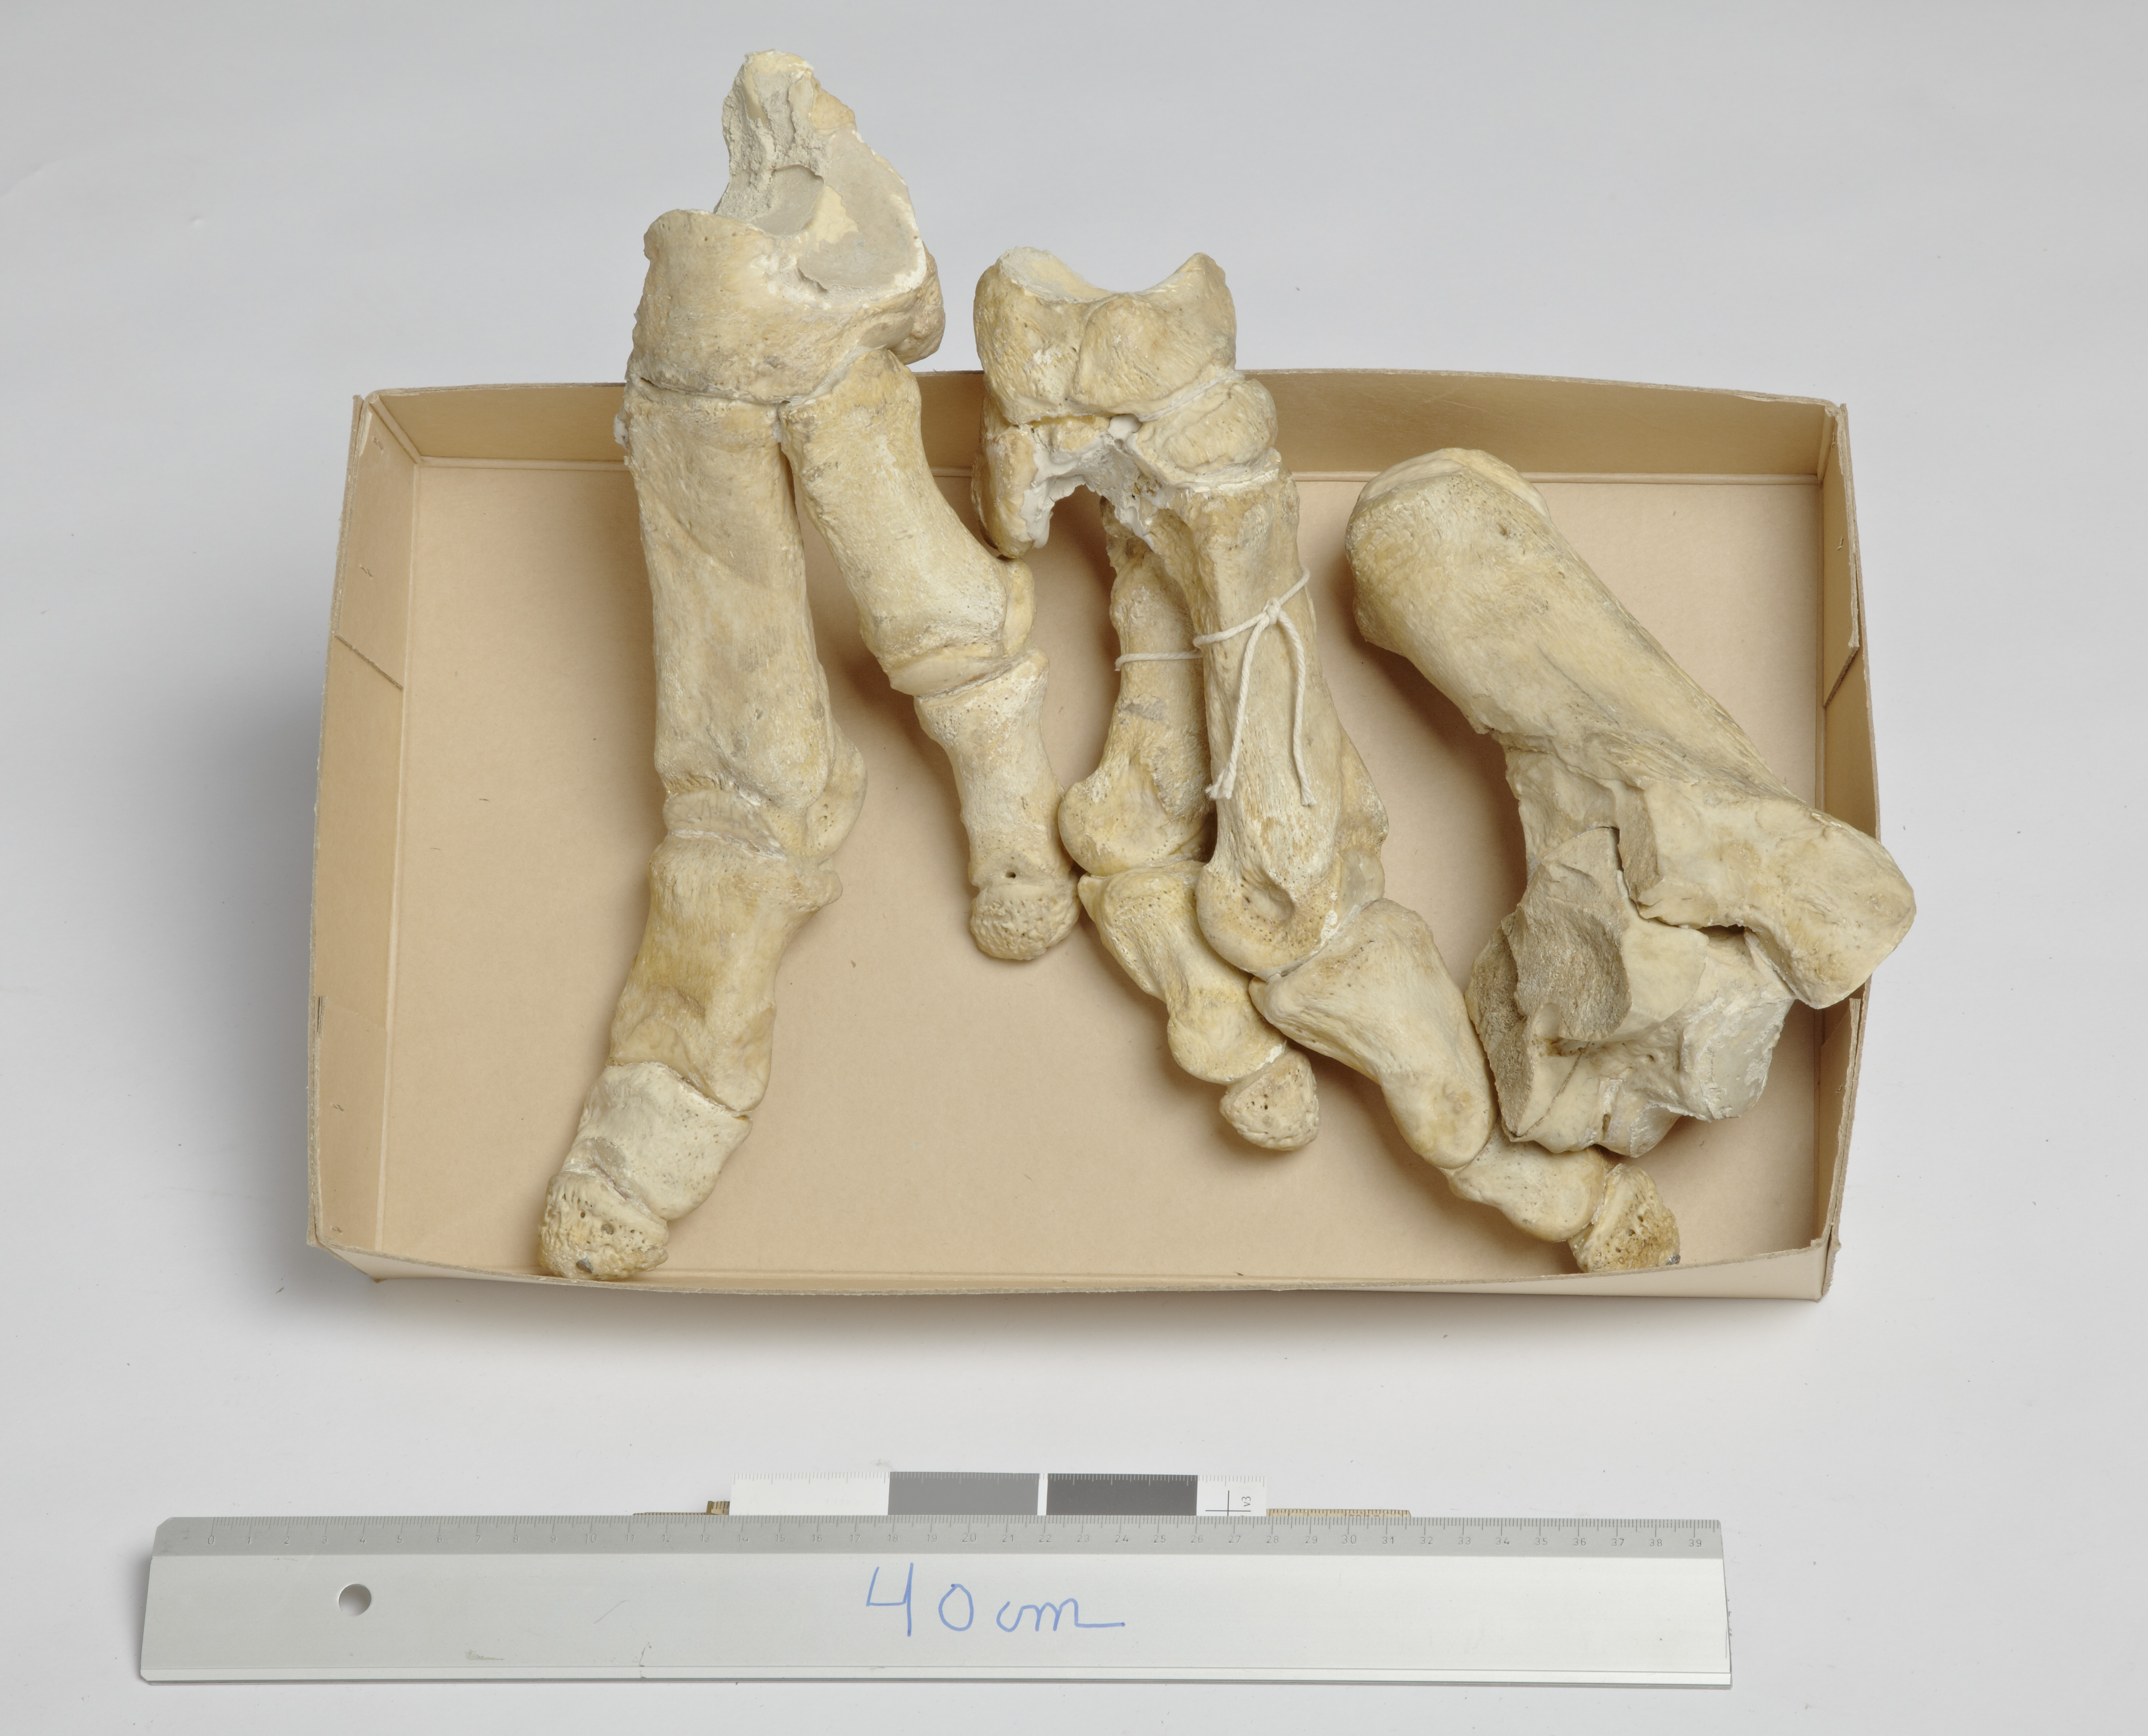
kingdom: Animalia
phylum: Chordata
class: Mammalia
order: Artiodactyla
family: Hippopotamidae
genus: Hexaprotodon
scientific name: Hexaprotodon madagascariensis
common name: Madagascan pygmy hippopotamus
